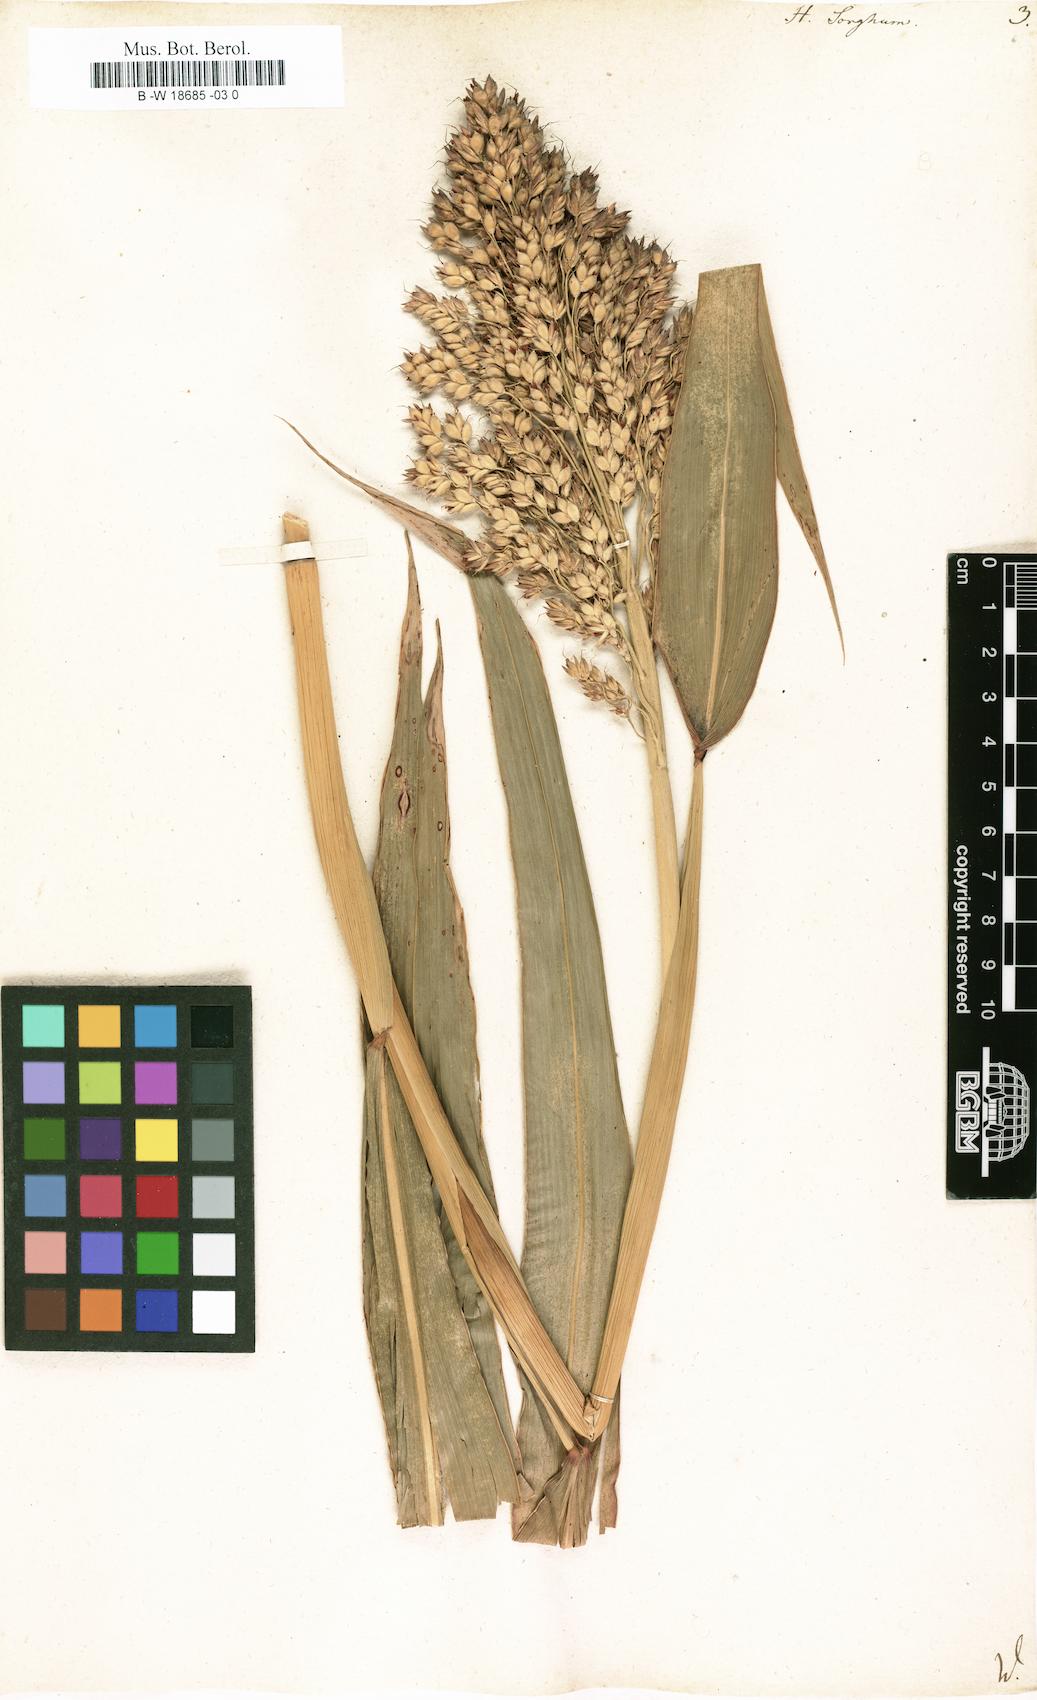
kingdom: Plantae
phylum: Tracheophyta
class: Liliopsida
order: Poales
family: Poaceae
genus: Sorghum
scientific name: Sorghum bicolor
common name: Sorghum
